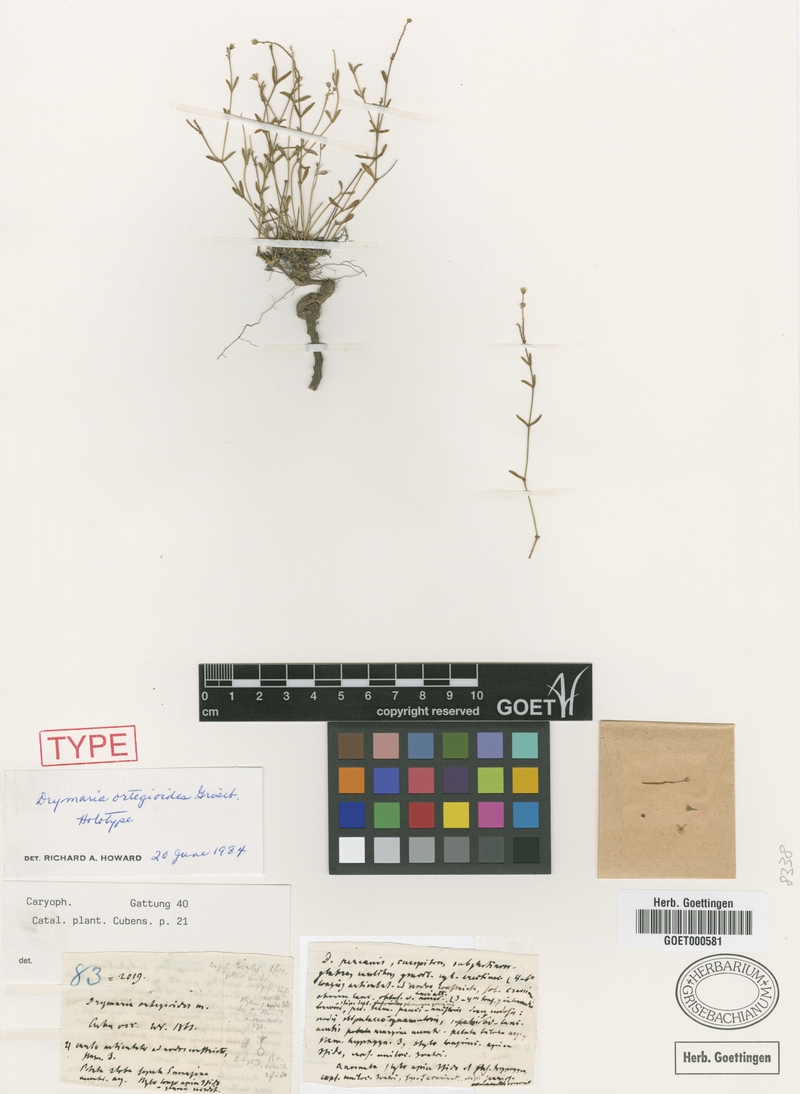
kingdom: Plantae
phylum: Tracheophyta
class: Magnoliopsida
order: Caryophyllales
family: Caryophyllaceae
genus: Drymaria
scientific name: Drymaria ortegioides
